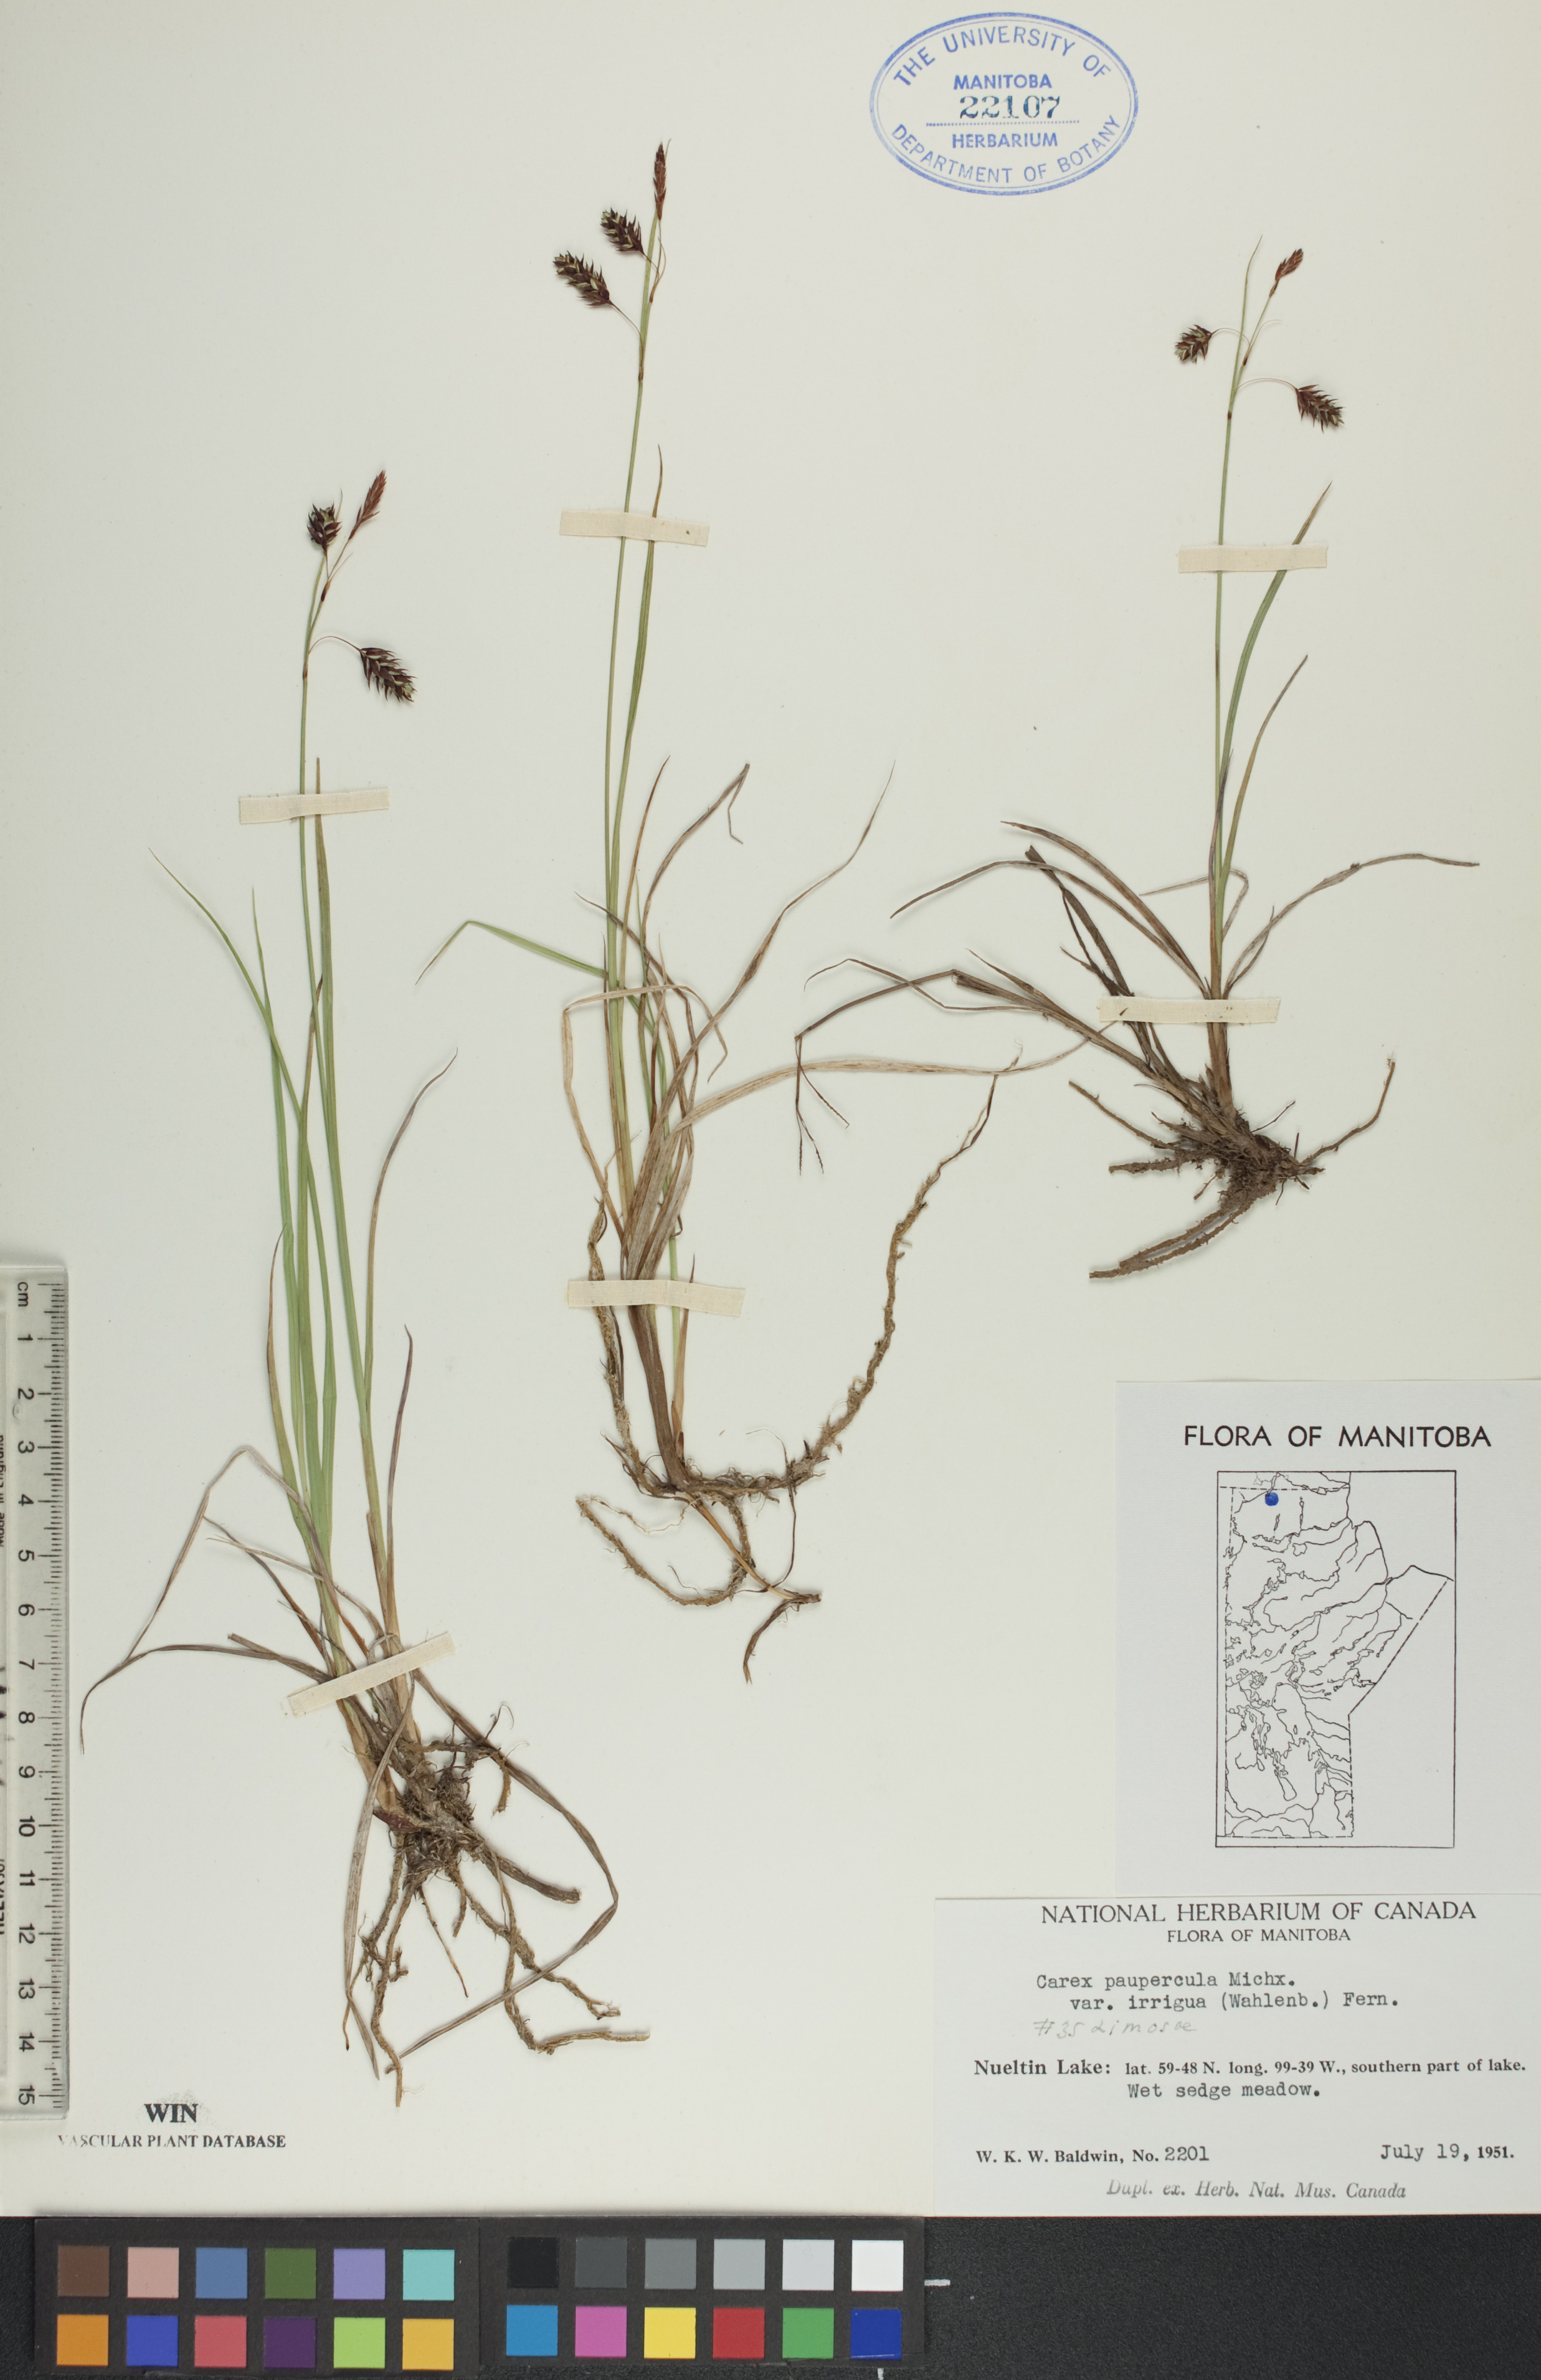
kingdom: Plantae
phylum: Tracheophyta
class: Liliopsida
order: Poales
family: Cyperaceae
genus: Carex
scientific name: Carex magellanica
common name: Bog sedge
